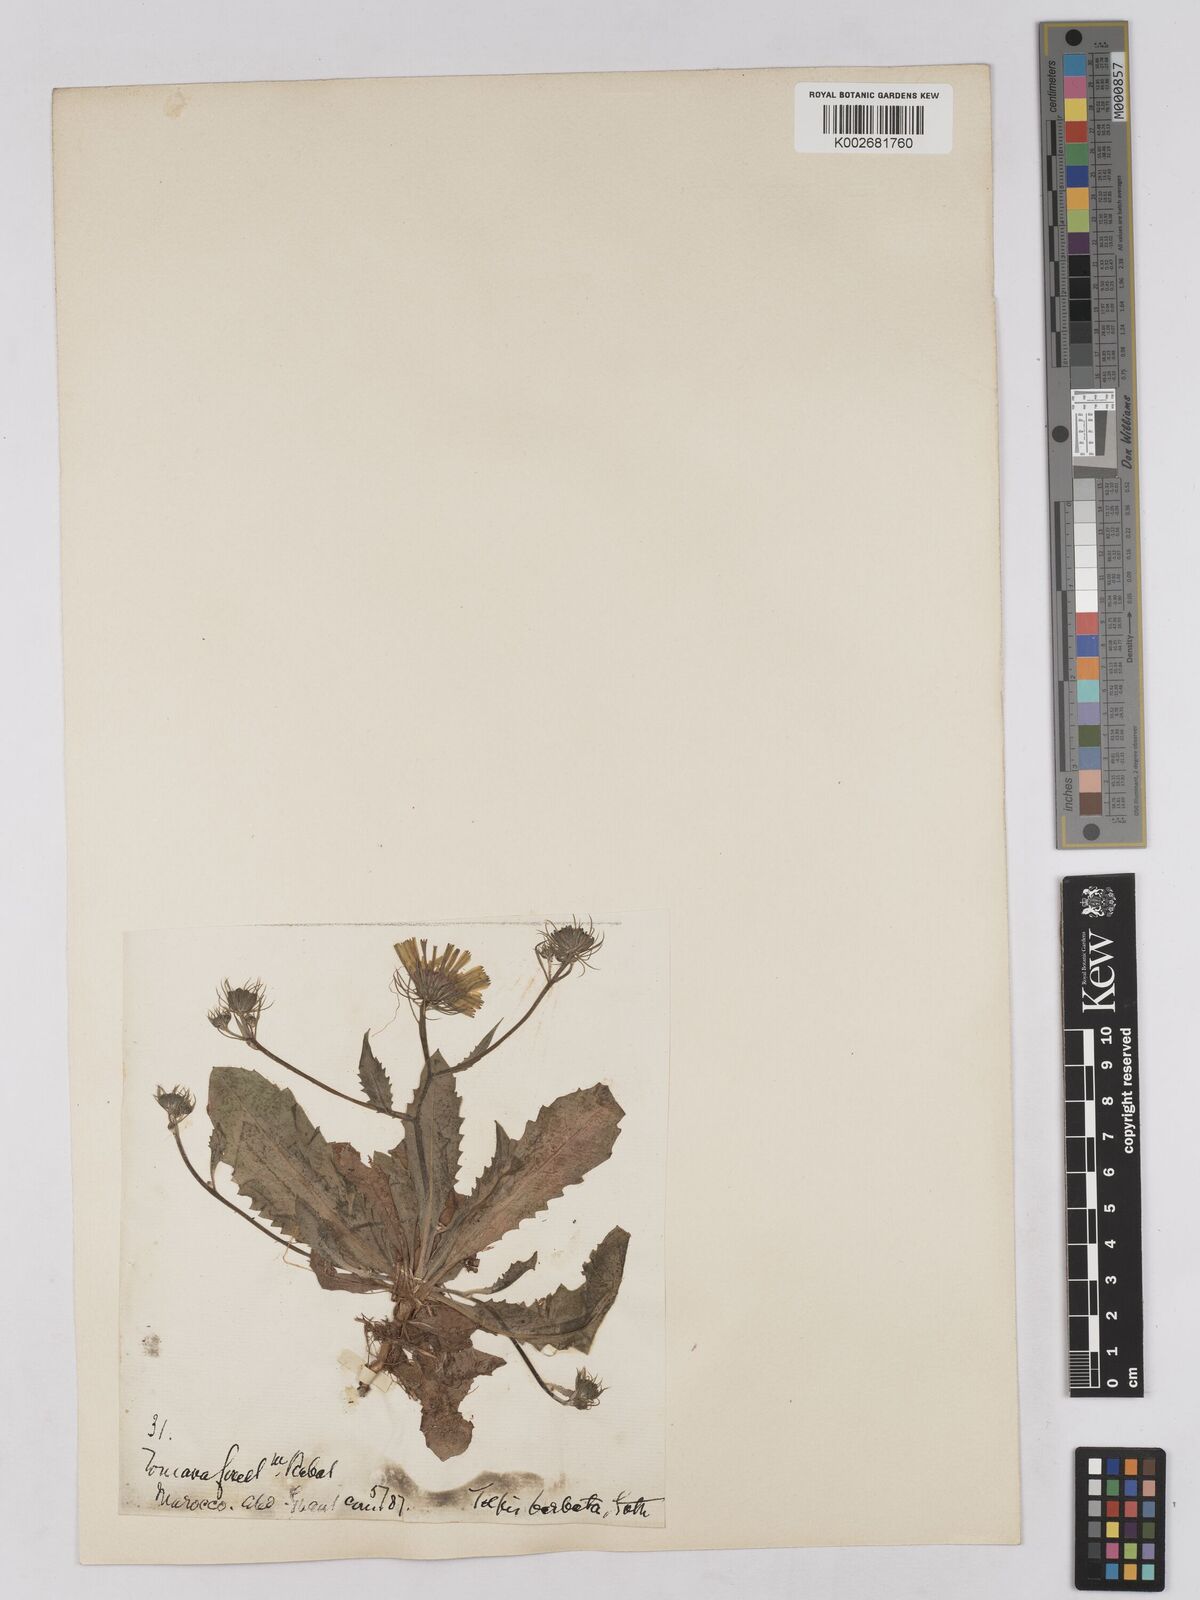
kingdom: Plantae
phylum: Tracheophyta
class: Magnoliopsida
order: Asterales
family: Asteraceae
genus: Tolpis
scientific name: Tolpis barbata
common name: Yellow hawkweed
